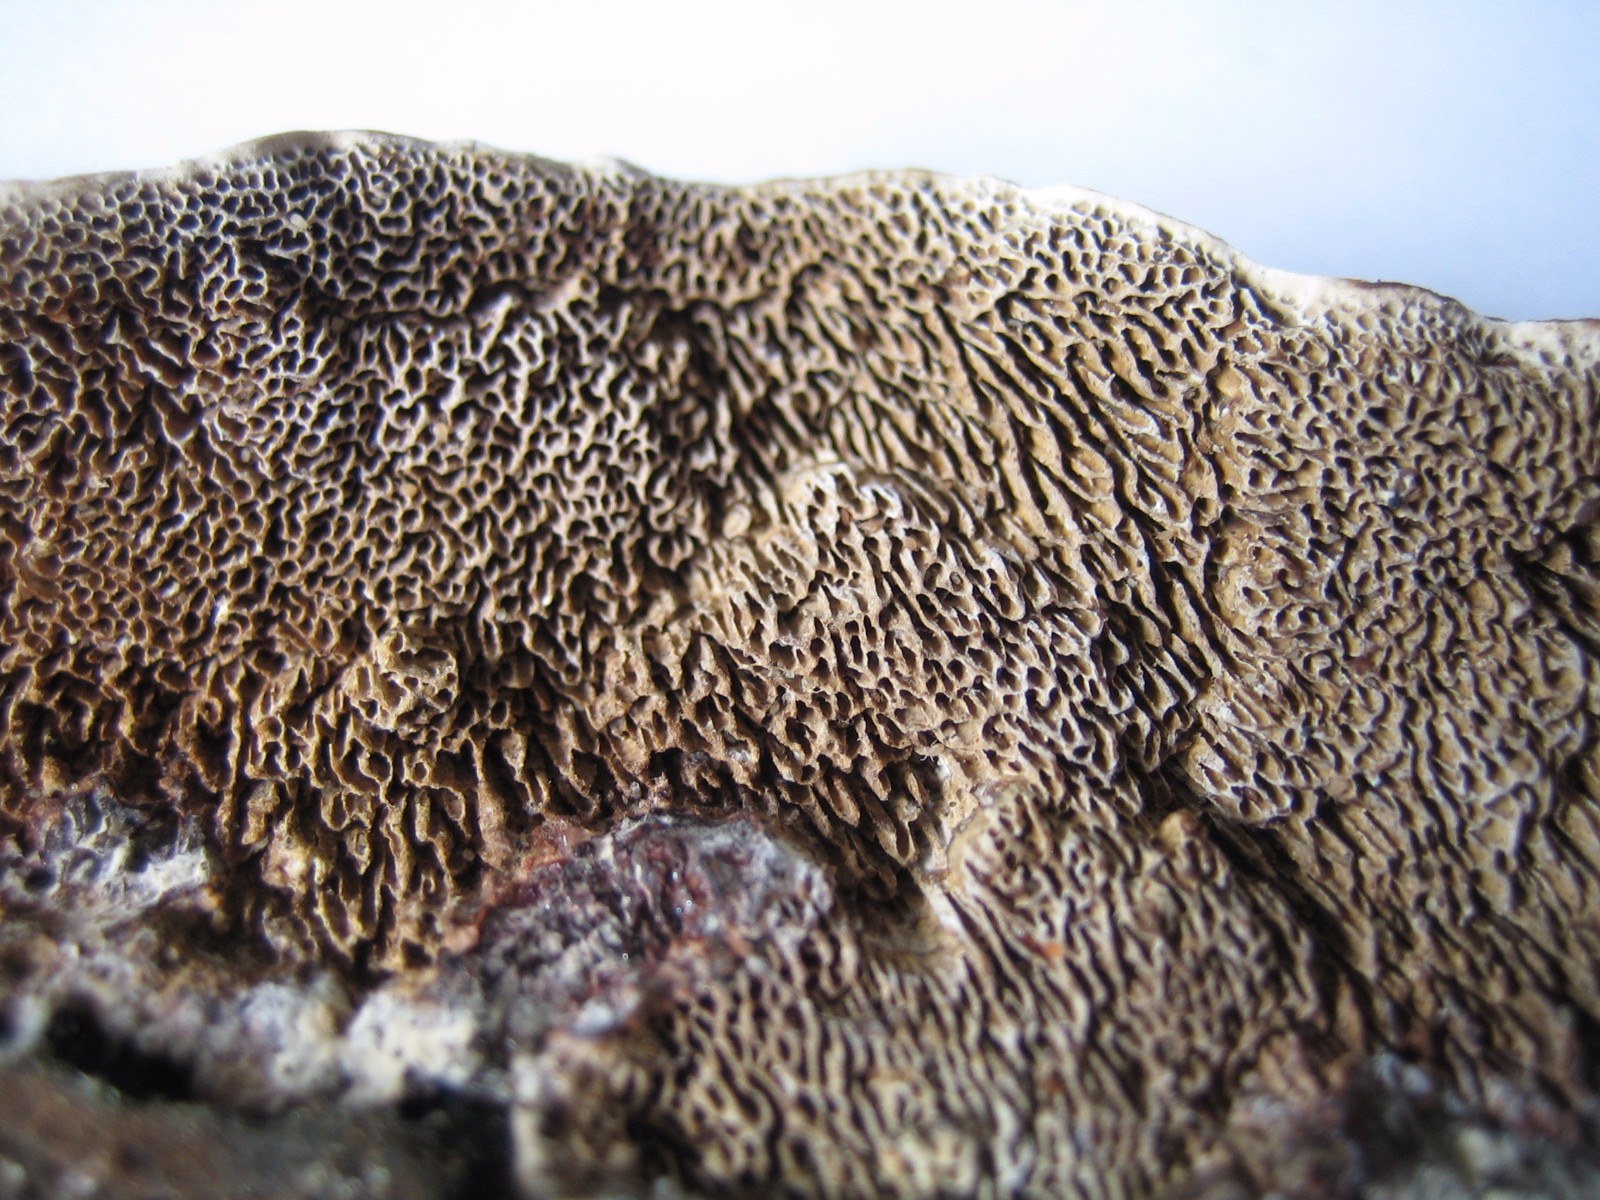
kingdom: Fungi
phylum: Basidiomycota
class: Agaricomycetes
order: Polyporales
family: Polyporaceae
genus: Podofomes
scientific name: Podofomes mollis
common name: blød begporesvamp
